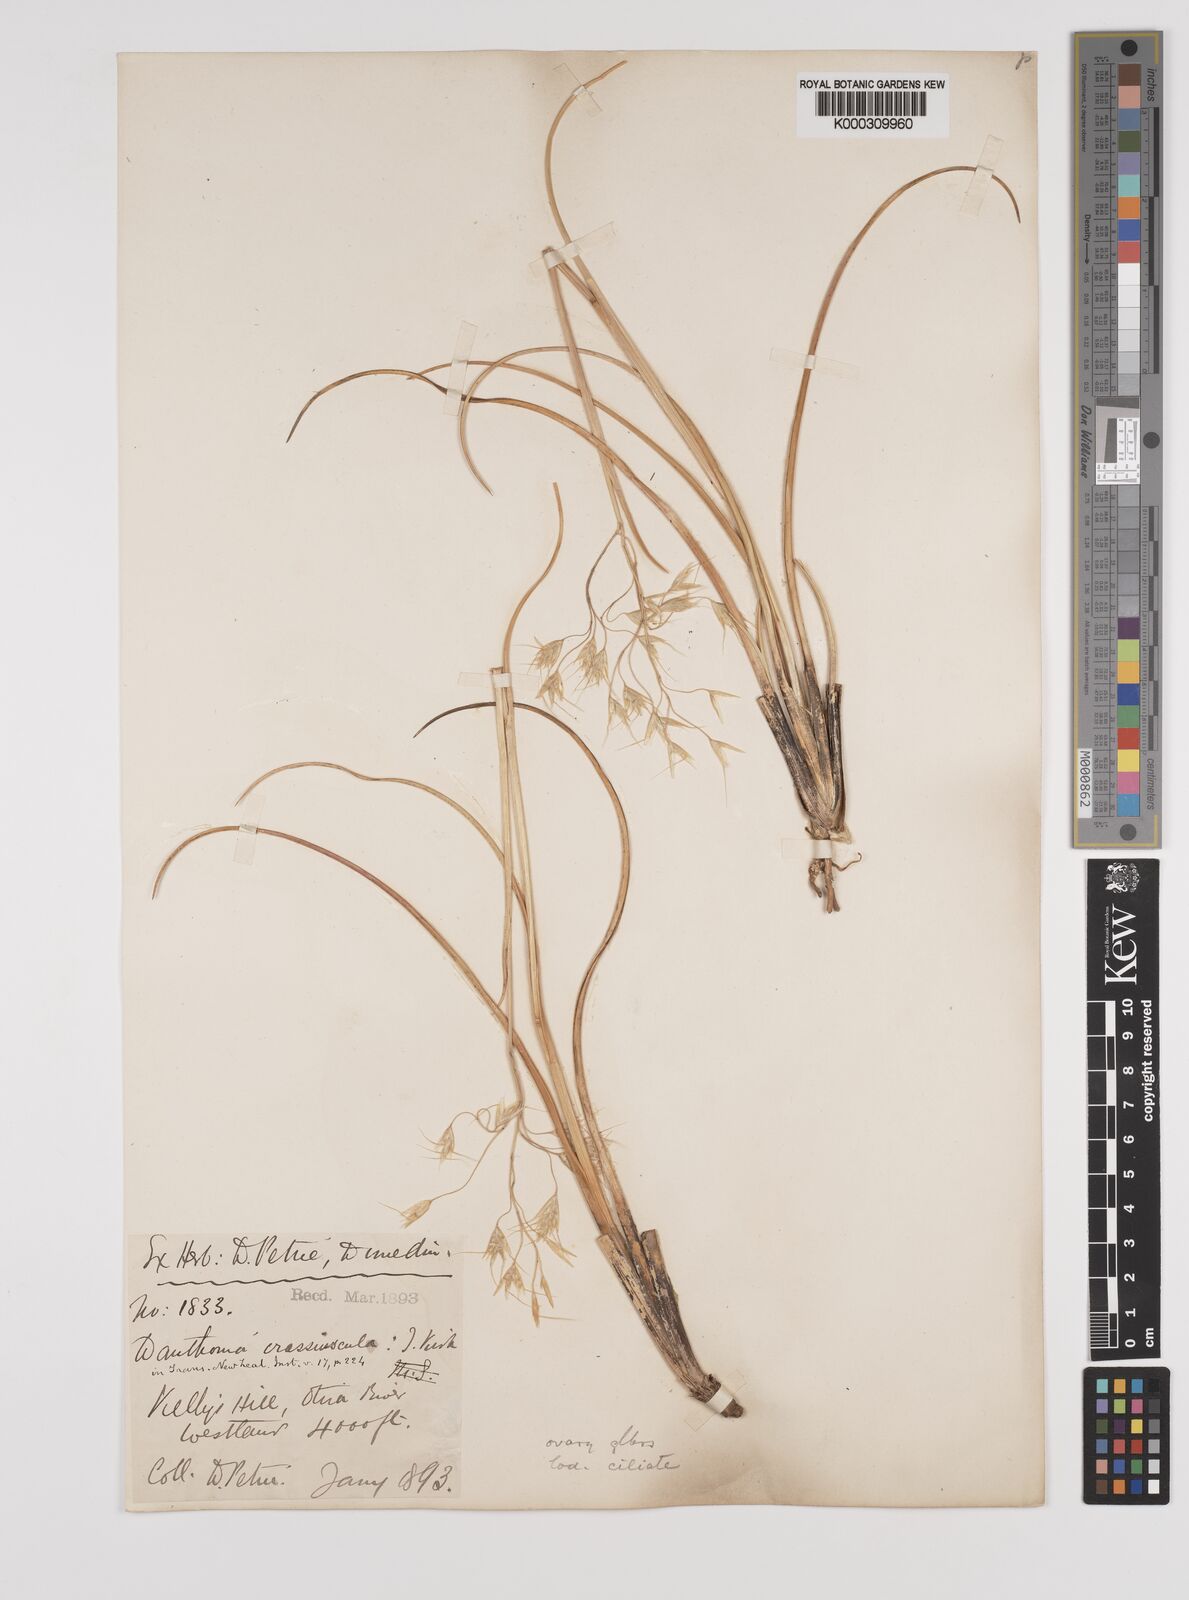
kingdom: Plantae
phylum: Tracheophyta
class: Liliopsida
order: Poales
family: Poaceae
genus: Chionochloa
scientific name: Chionochloa crassiuscula
